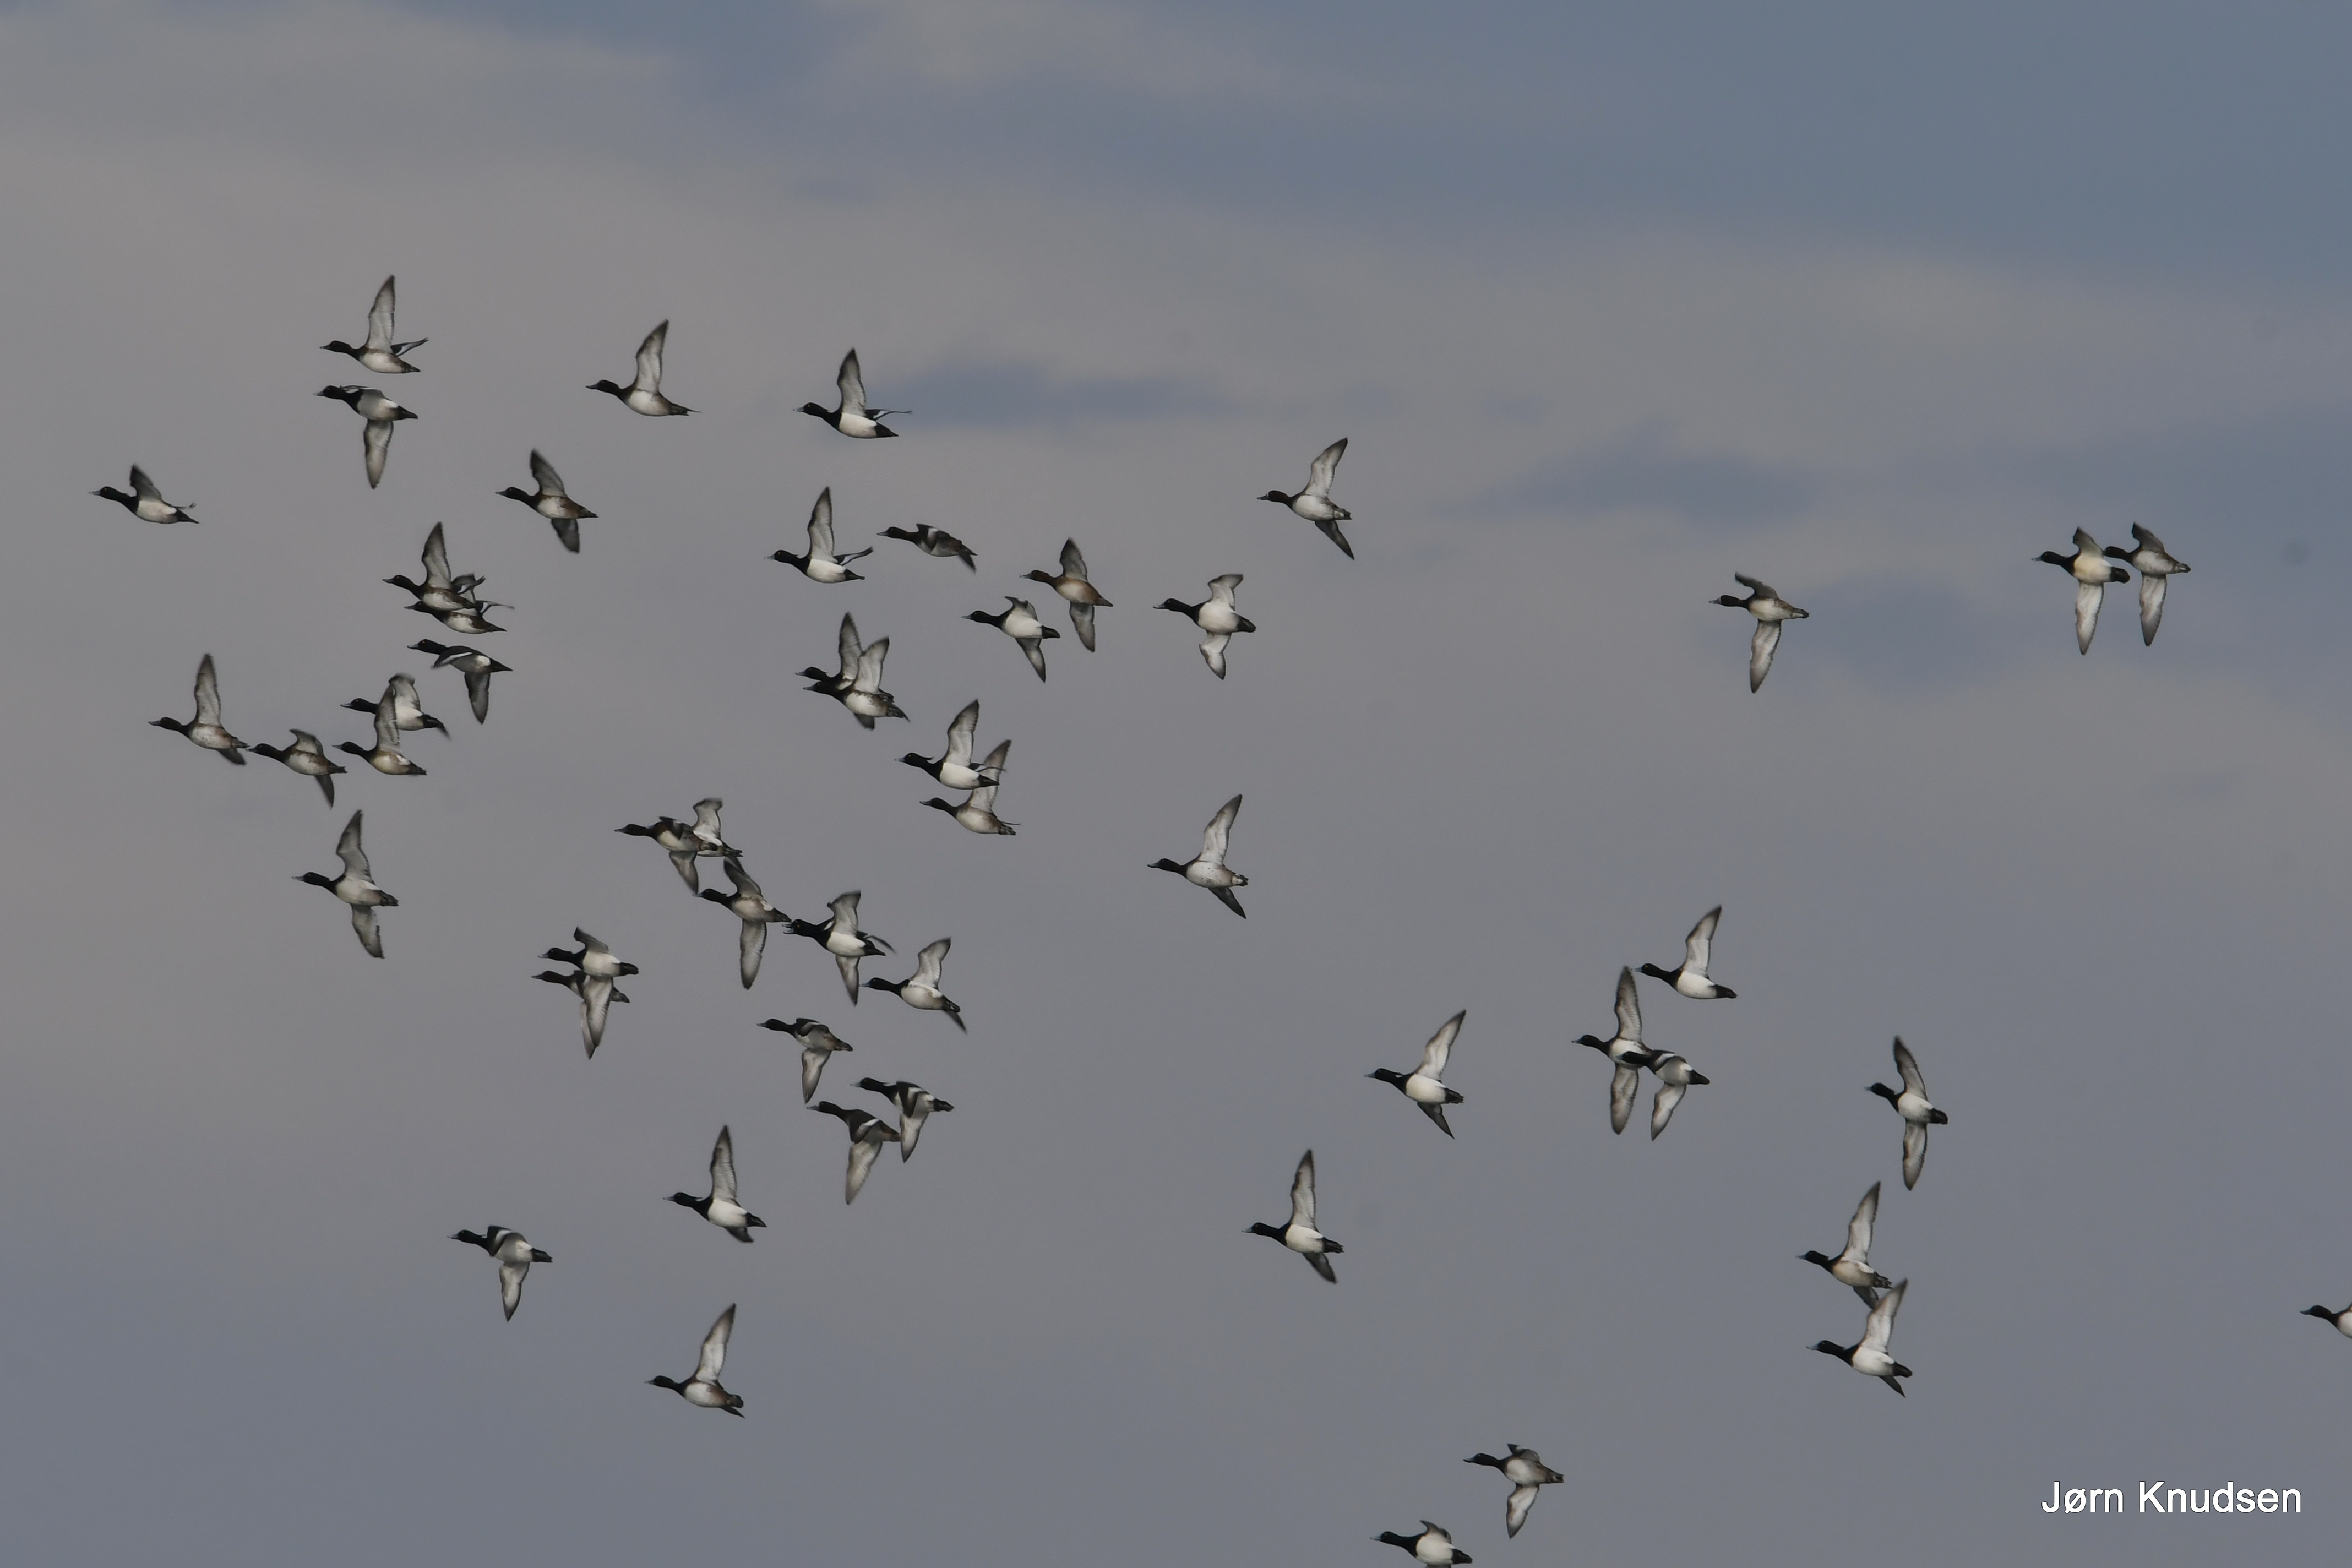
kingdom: Animalia
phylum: Chordata
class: Aves
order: Anseriformes
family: Anatidae
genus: Aythya
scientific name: Aythya fuligula
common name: Troldand
